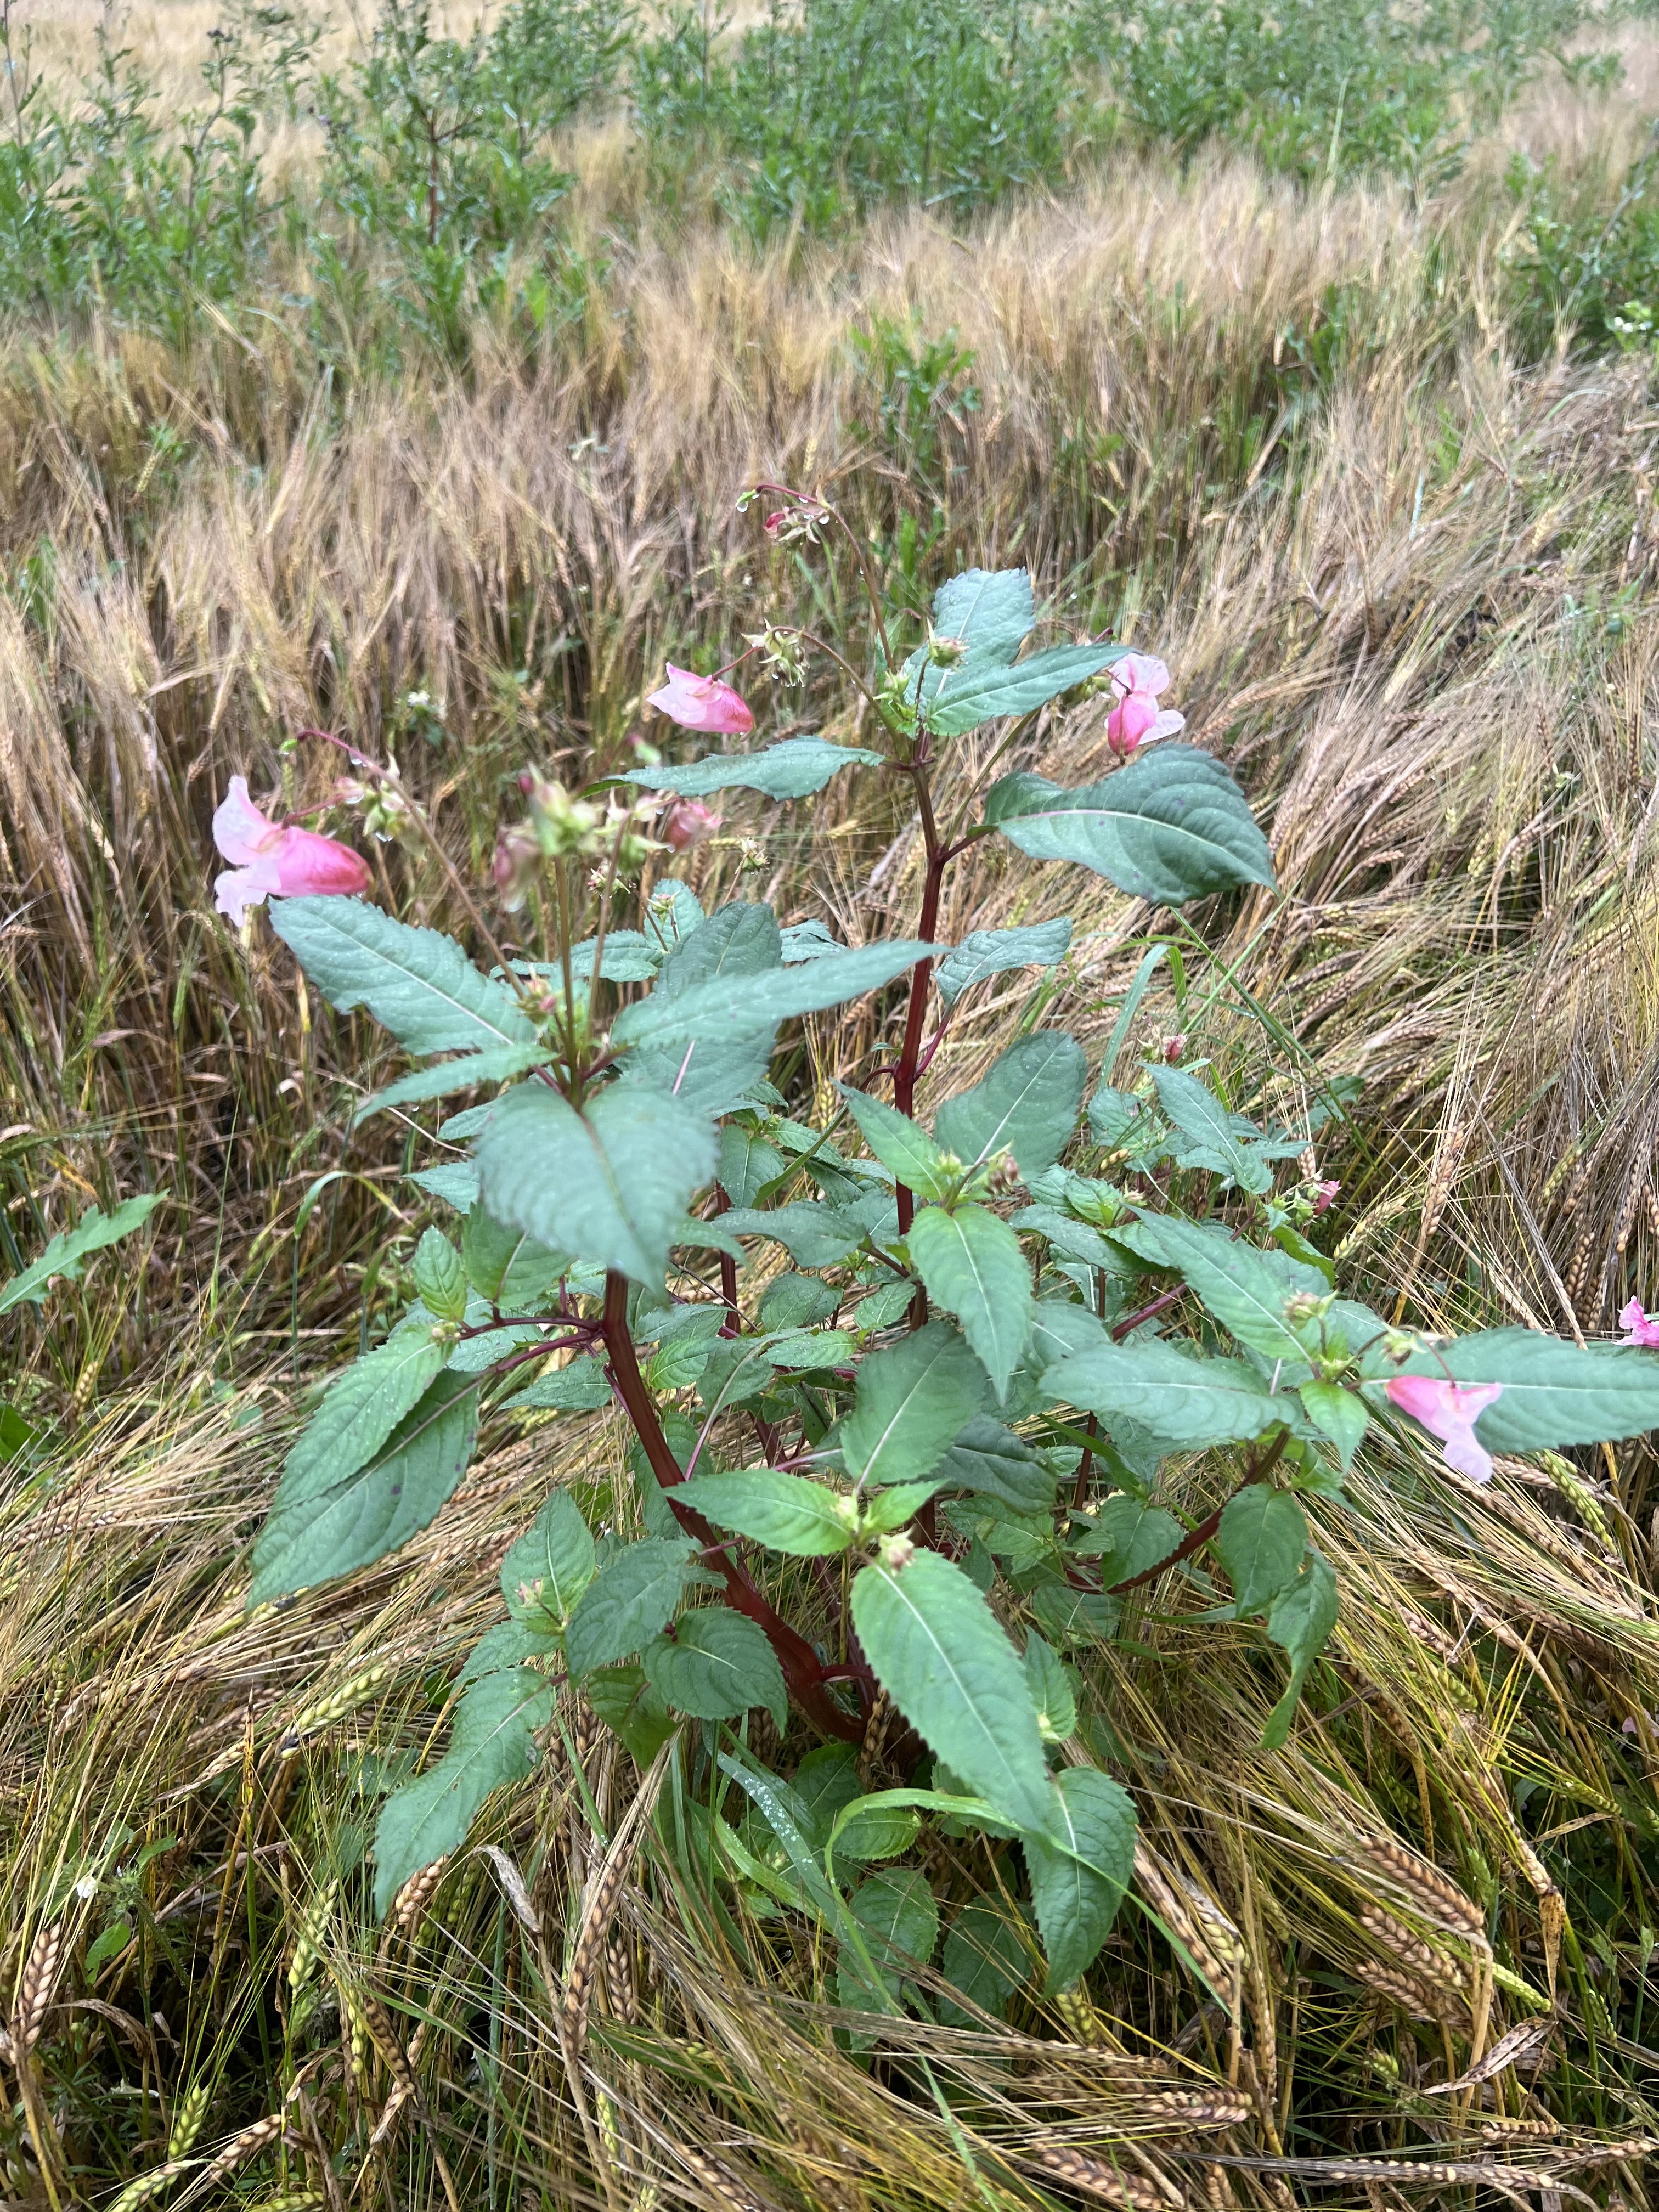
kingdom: Plantae
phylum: Tracheophyta
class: Magnoliopsida
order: Ericales
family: Balsaminaceae
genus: Impatiens
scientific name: Impatiens glandulifera
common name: Himalayan balsam
